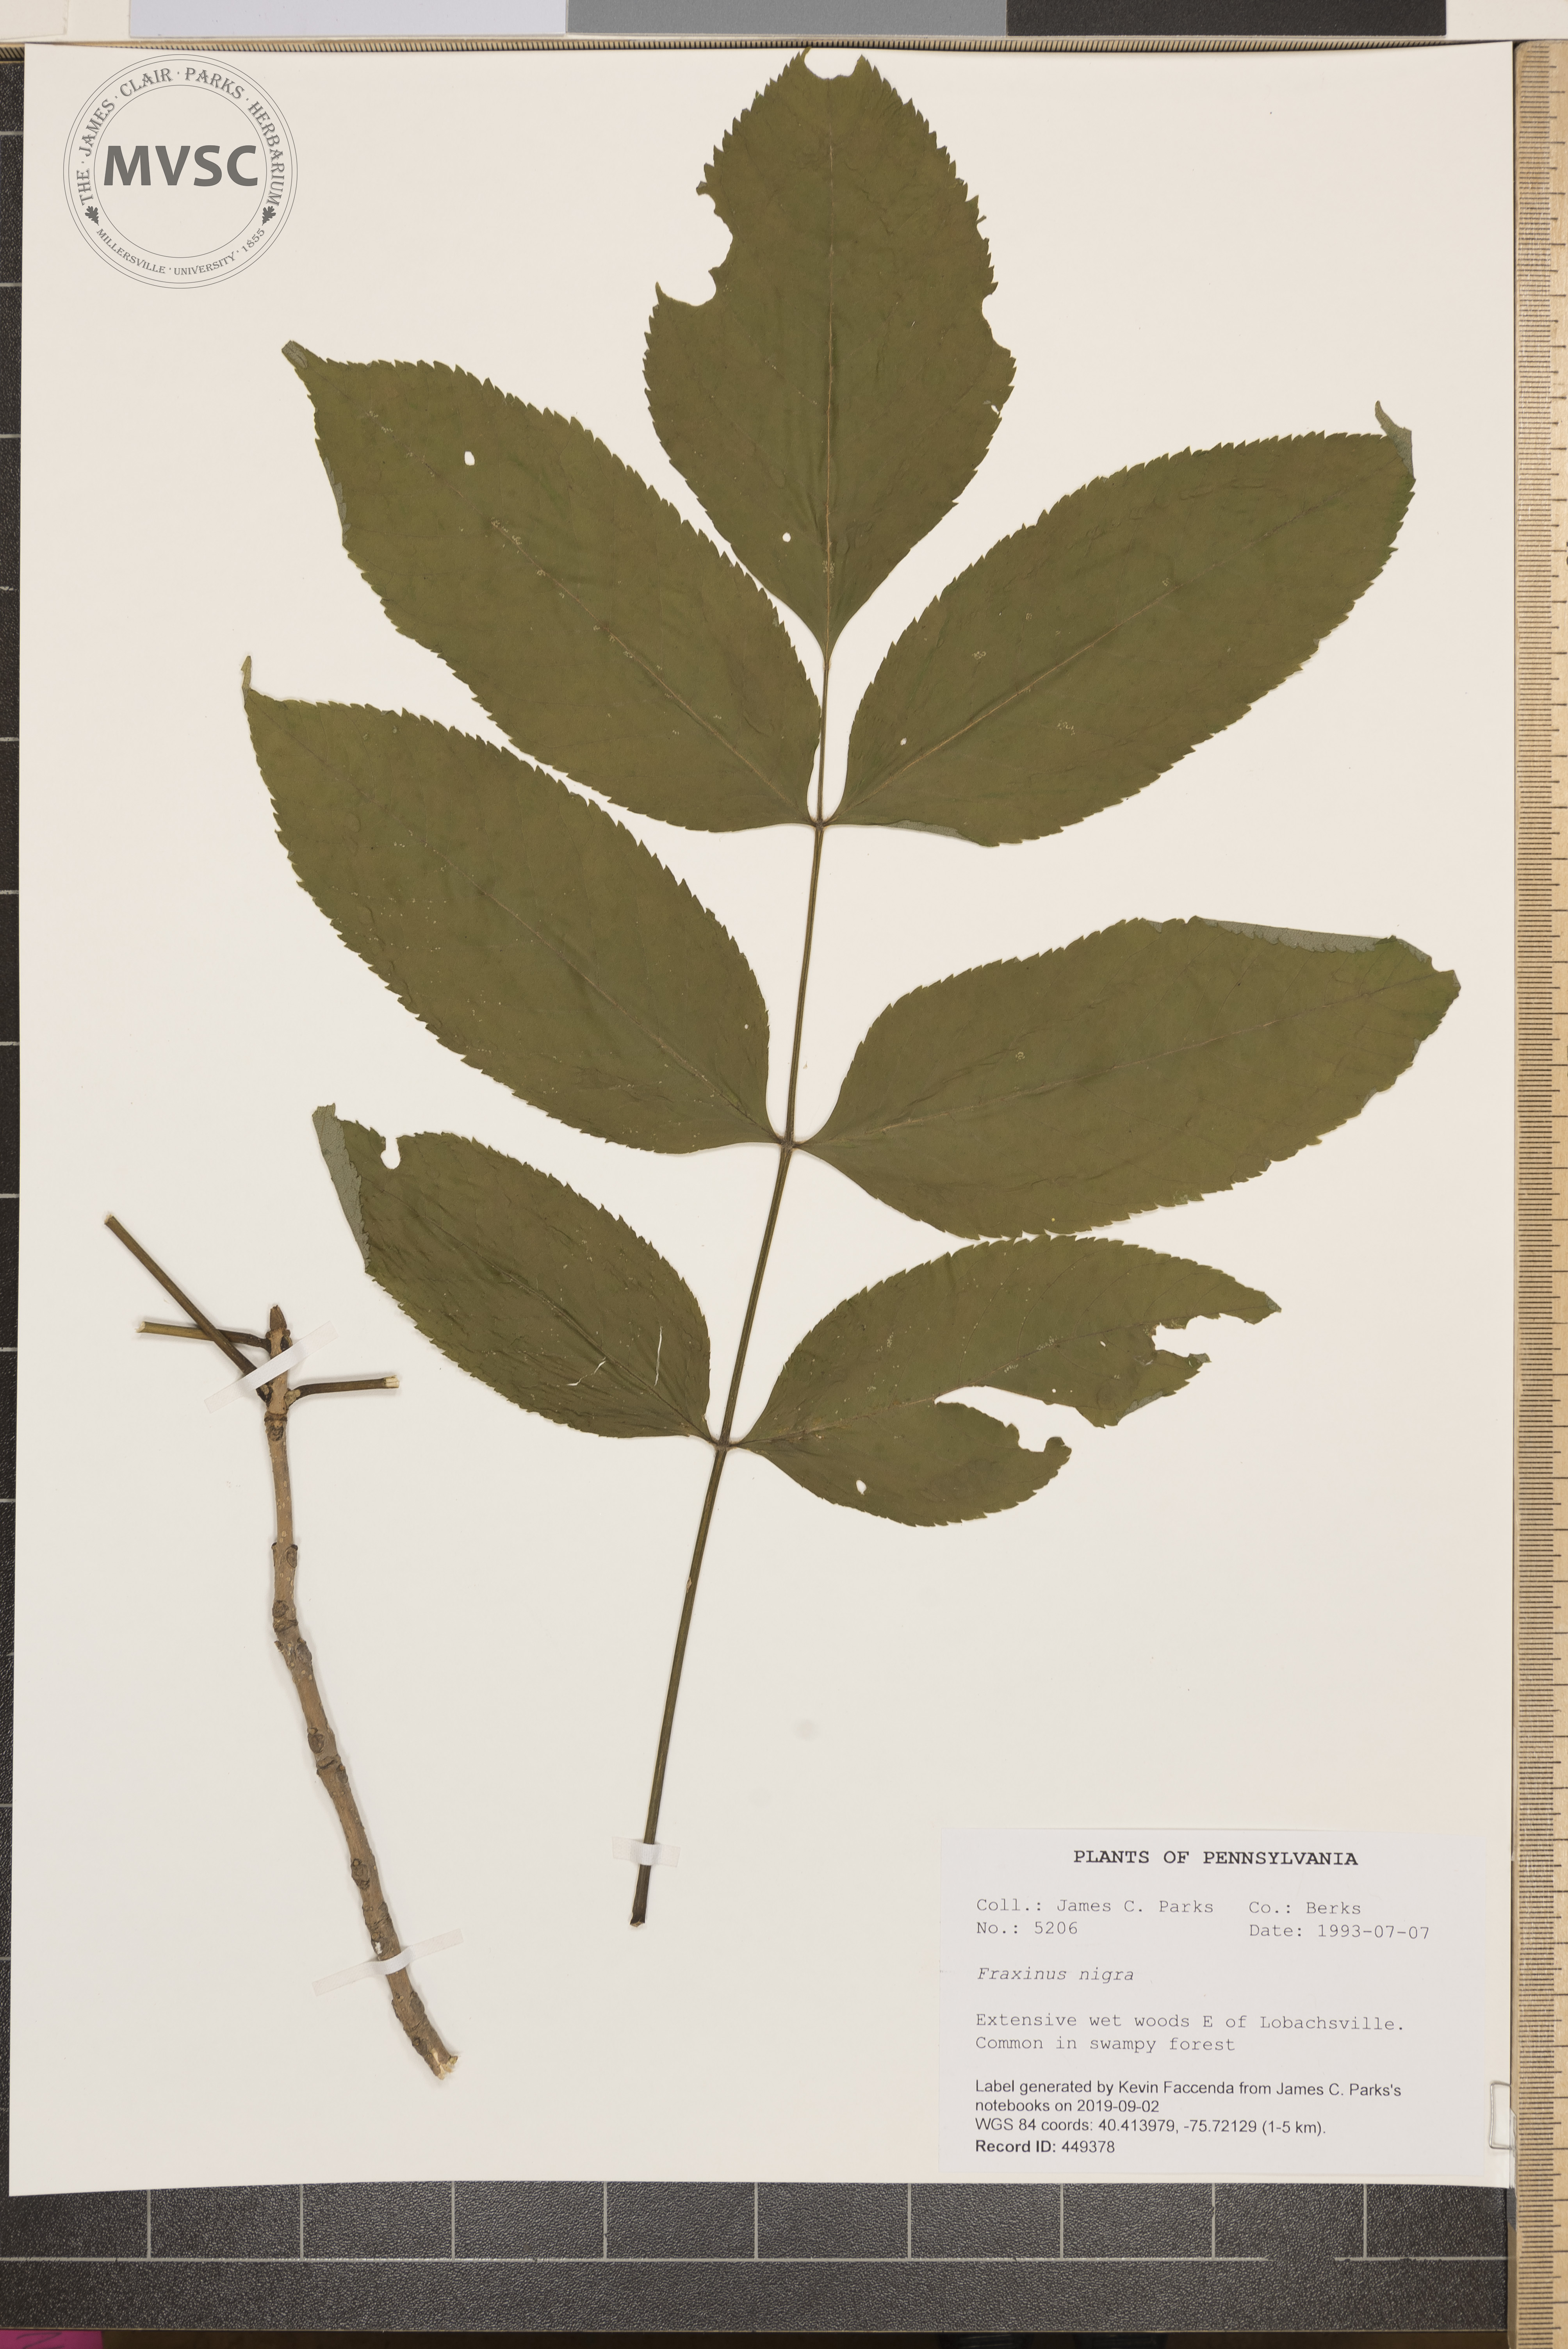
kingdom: Plantae
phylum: Tracheophyta
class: Magnoliopsida
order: Lamiales
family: Oleaceae
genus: Fraxinus
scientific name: Fraxinus nigra
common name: Black ash
